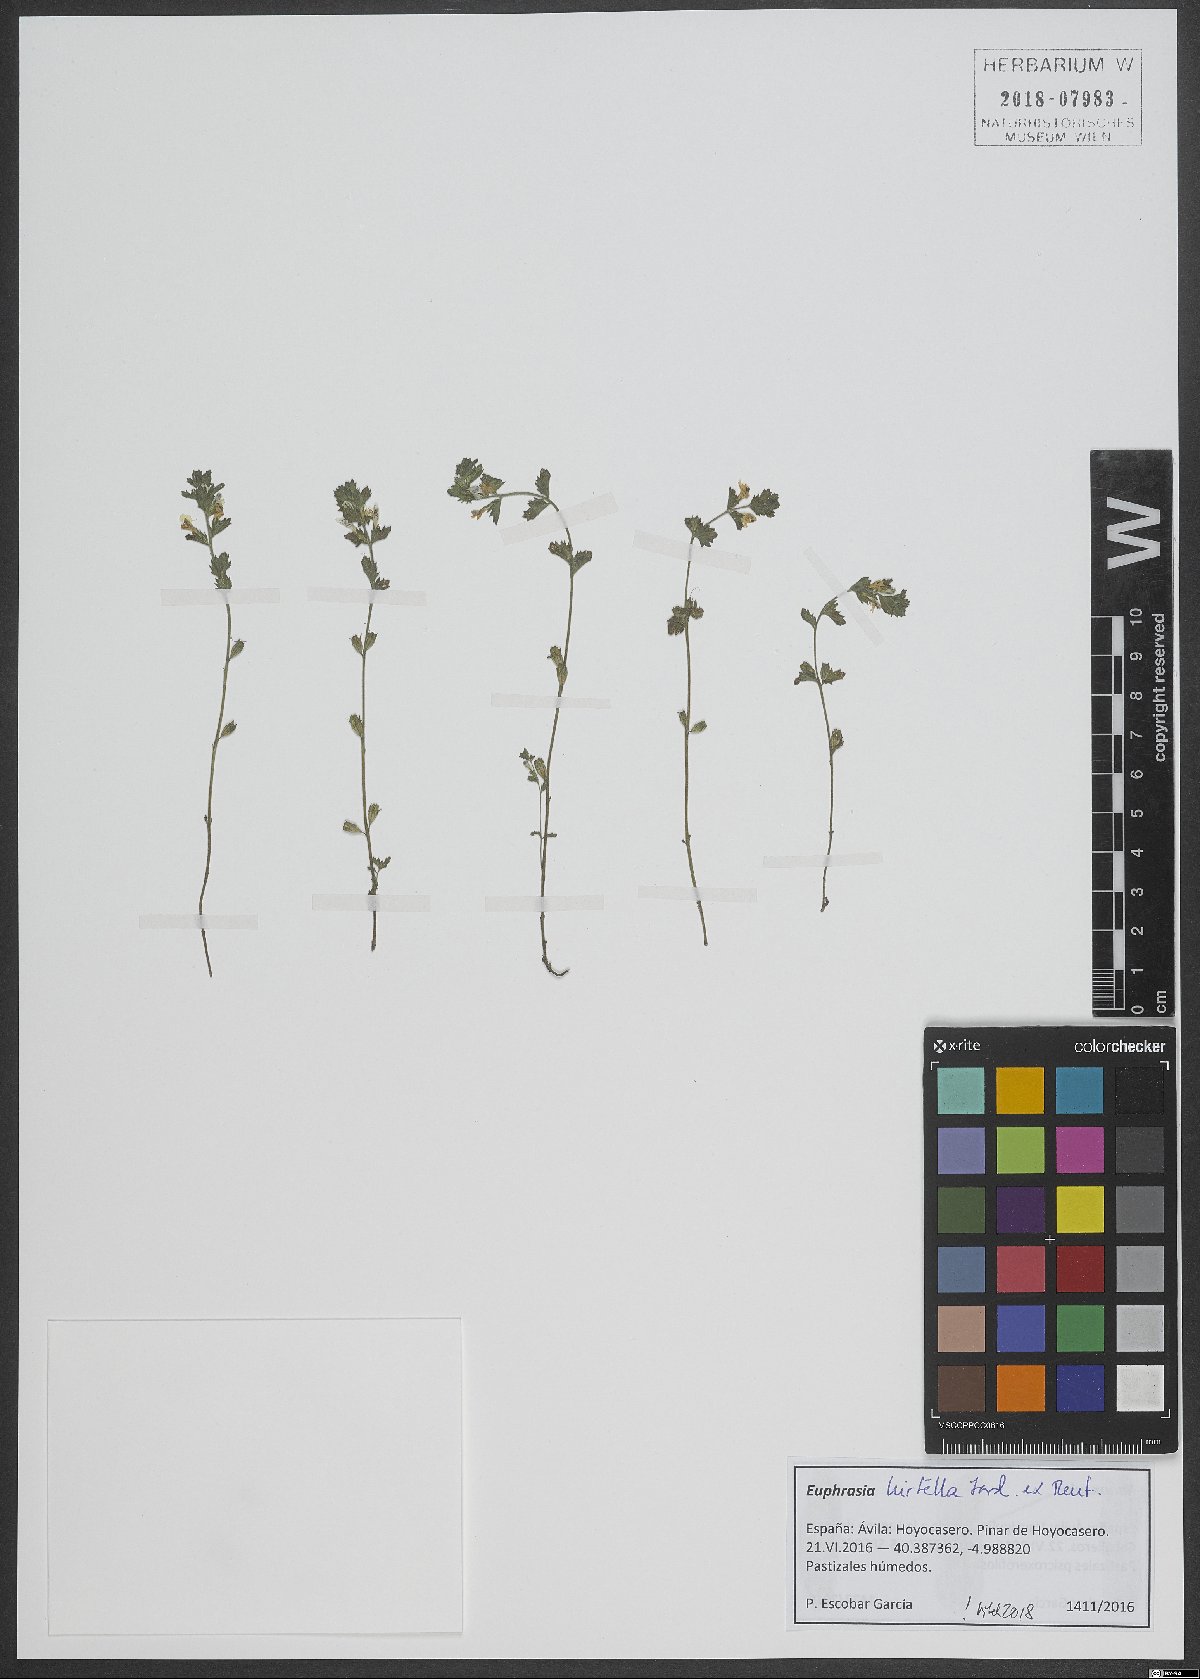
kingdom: Plantae
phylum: Tracheophyta
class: Magnoliopsida
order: Lamiales
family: Orobanchaceae
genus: Euphrasia
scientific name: Euphrasia hirtella
